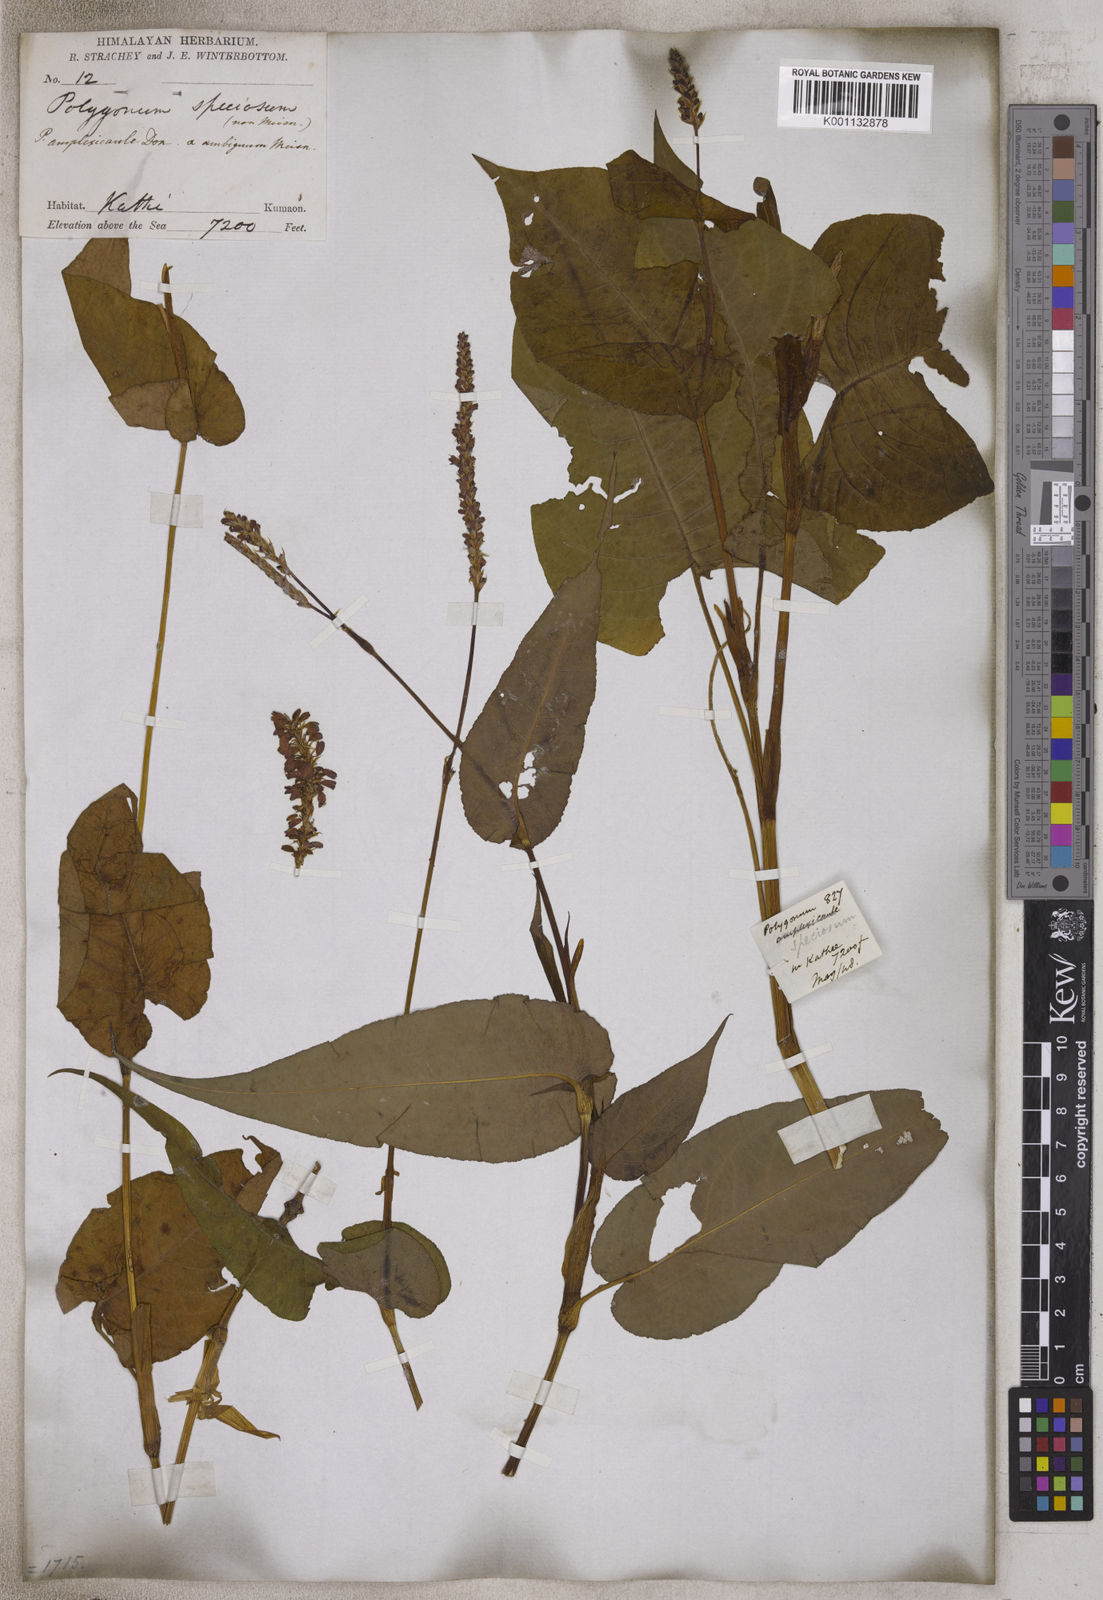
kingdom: Plantae
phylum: Tracheophyta
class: Magnoliopsida
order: Caryophyllales
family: Polygonaceae
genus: Polygonum
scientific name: Polygonum
